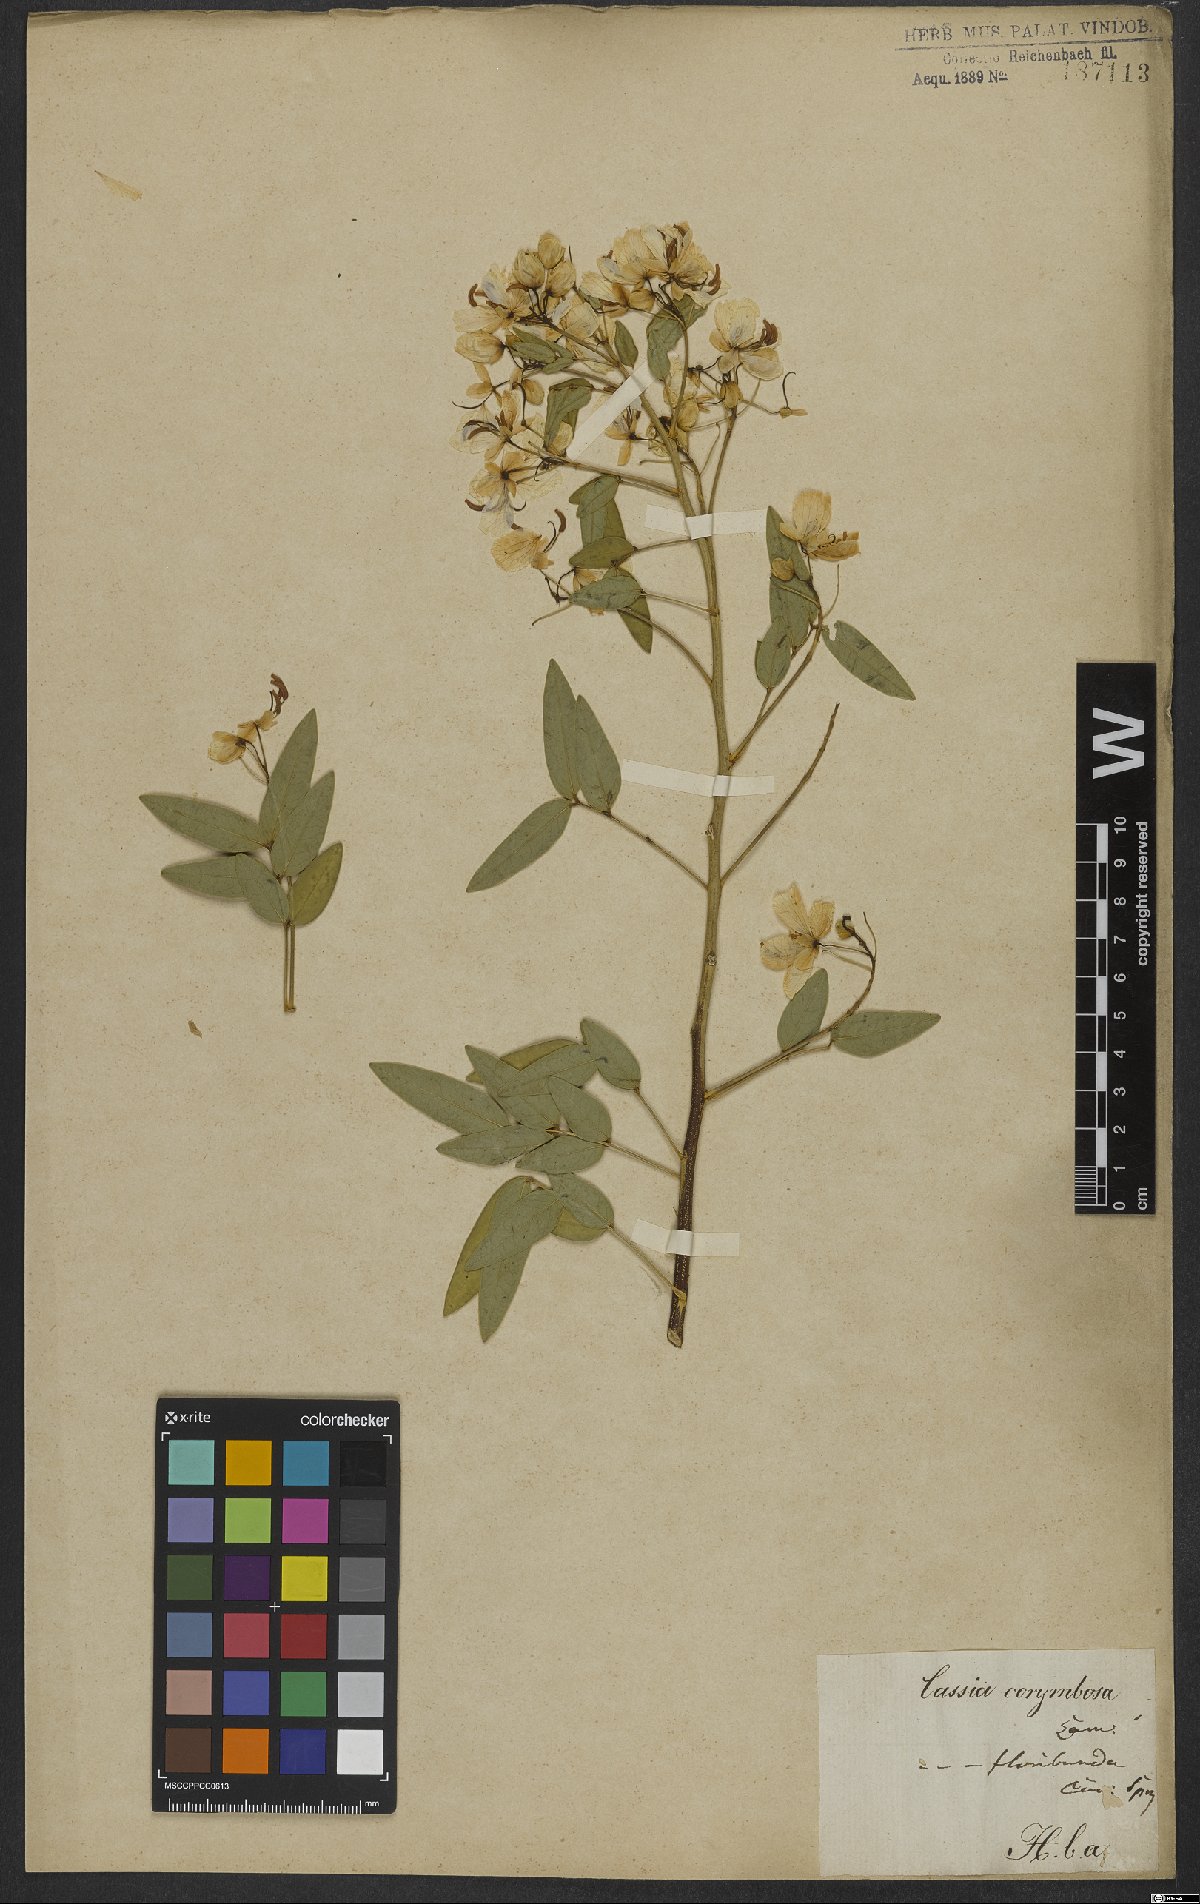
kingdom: Plantae
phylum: Tracheophyta
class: Magnoliopsida
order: Fabales
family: Fabaceae
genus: Senna
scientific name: Senna corymbosa
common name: Argentine senna
